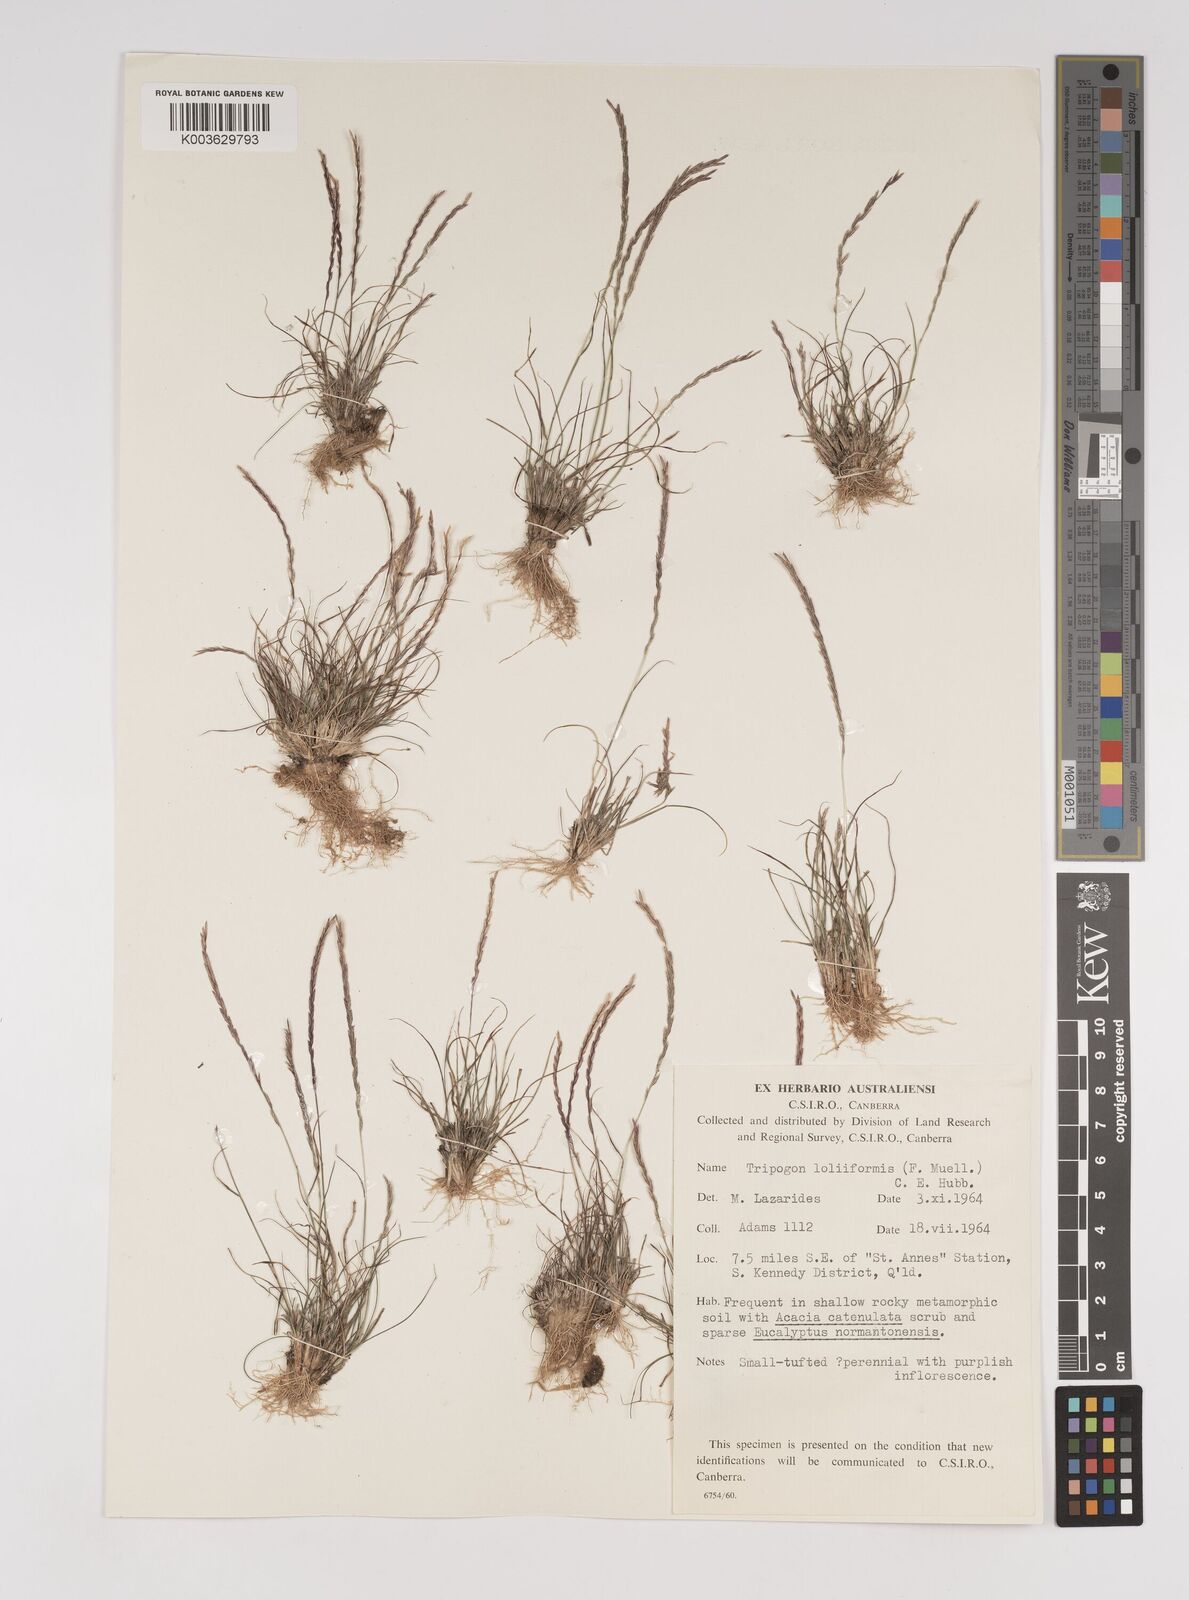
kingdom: Plantae
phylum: Tracheophyta
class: Liliopsida
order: Poales
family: Poaceae
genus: Tripogonella
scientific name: Tripogonella loliiformis
